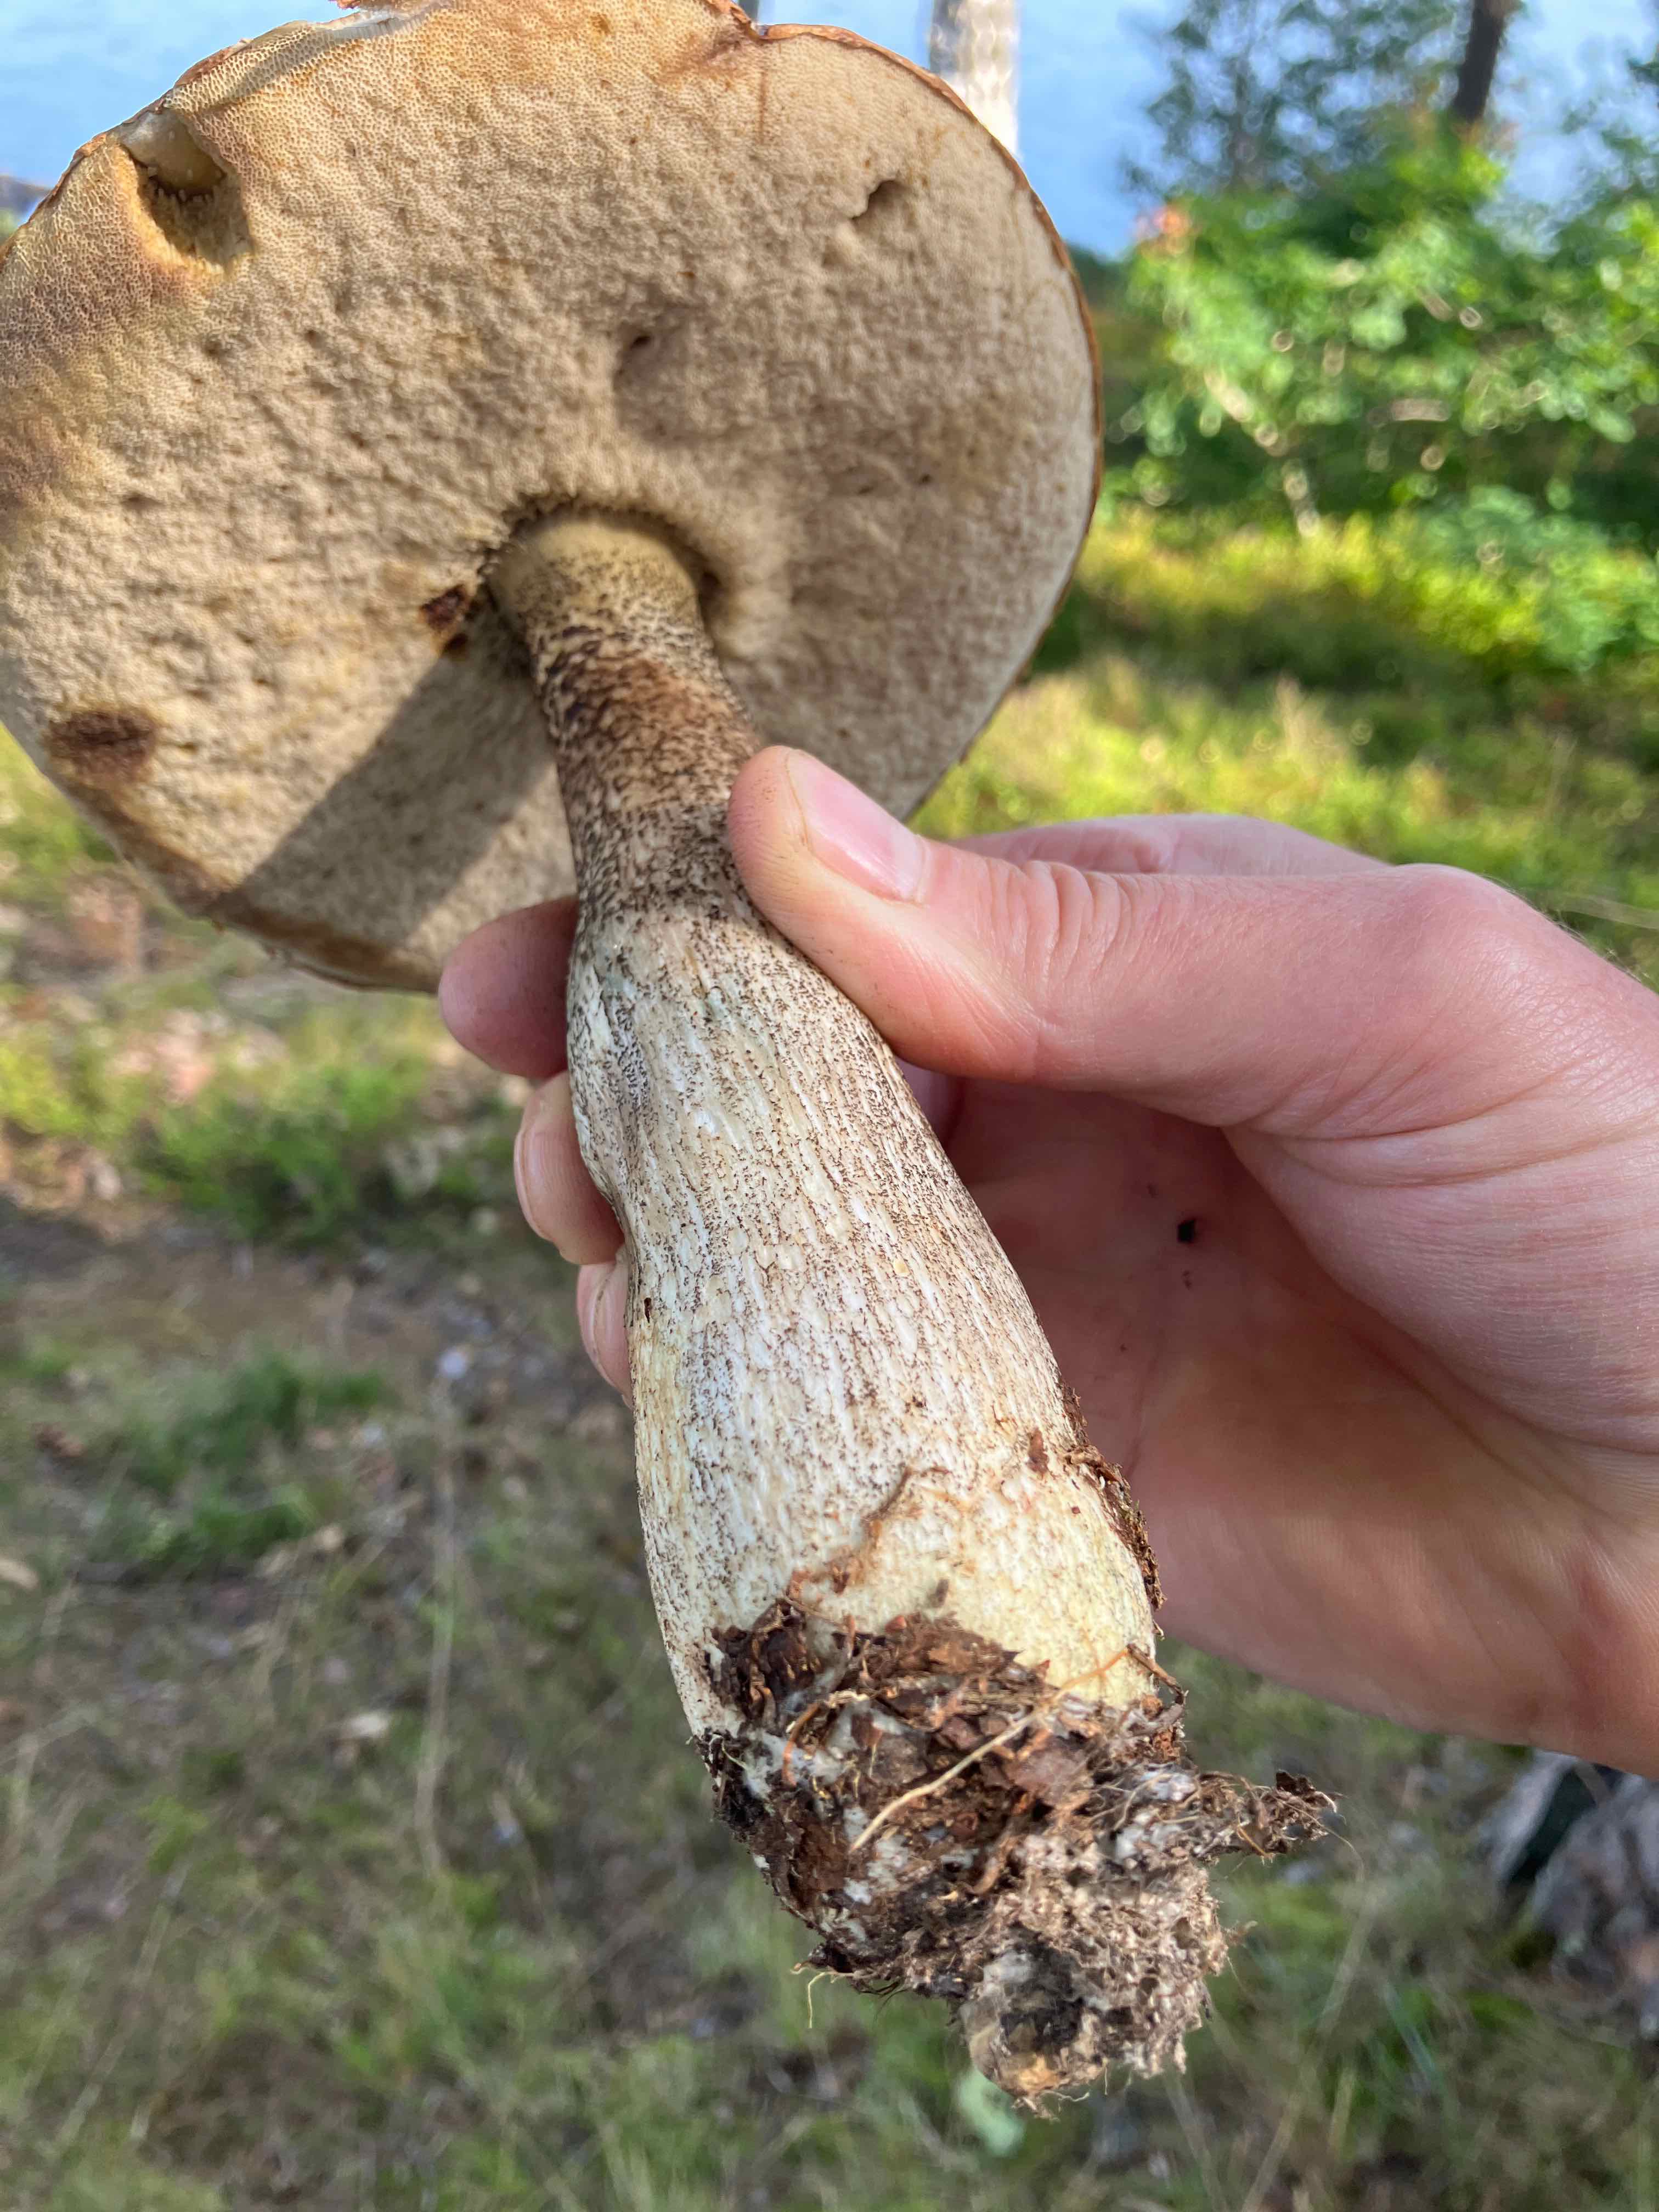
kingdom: Fungi
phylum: Basidiomycota
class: Agaricomycetes
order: Boletales
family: Boletaceae
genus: Leccinum
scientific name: Leccinum
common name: skælrørhat
